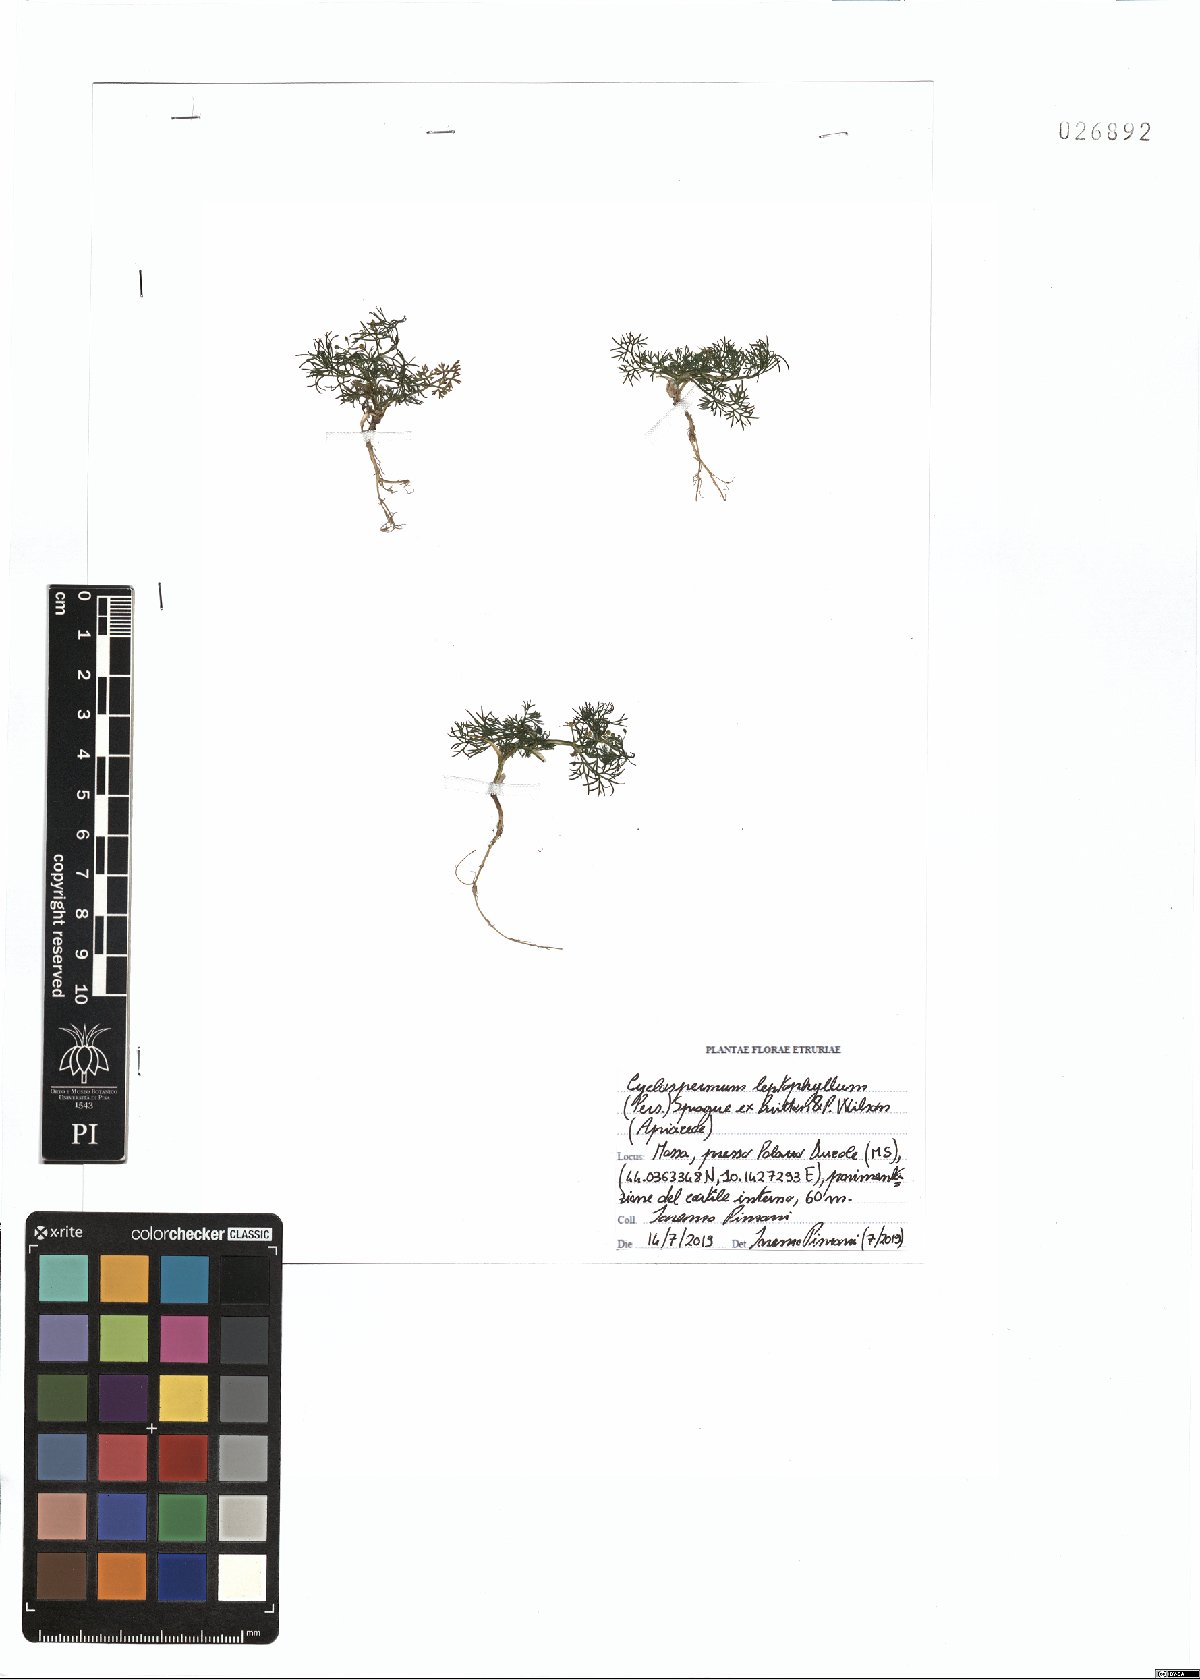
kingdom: Plantae
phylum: Tracheophyta
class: Magnoliopsida
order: Apiales
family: Apiaceae
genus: Cyclospermum
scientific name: Cyclospermum leptophyllum
